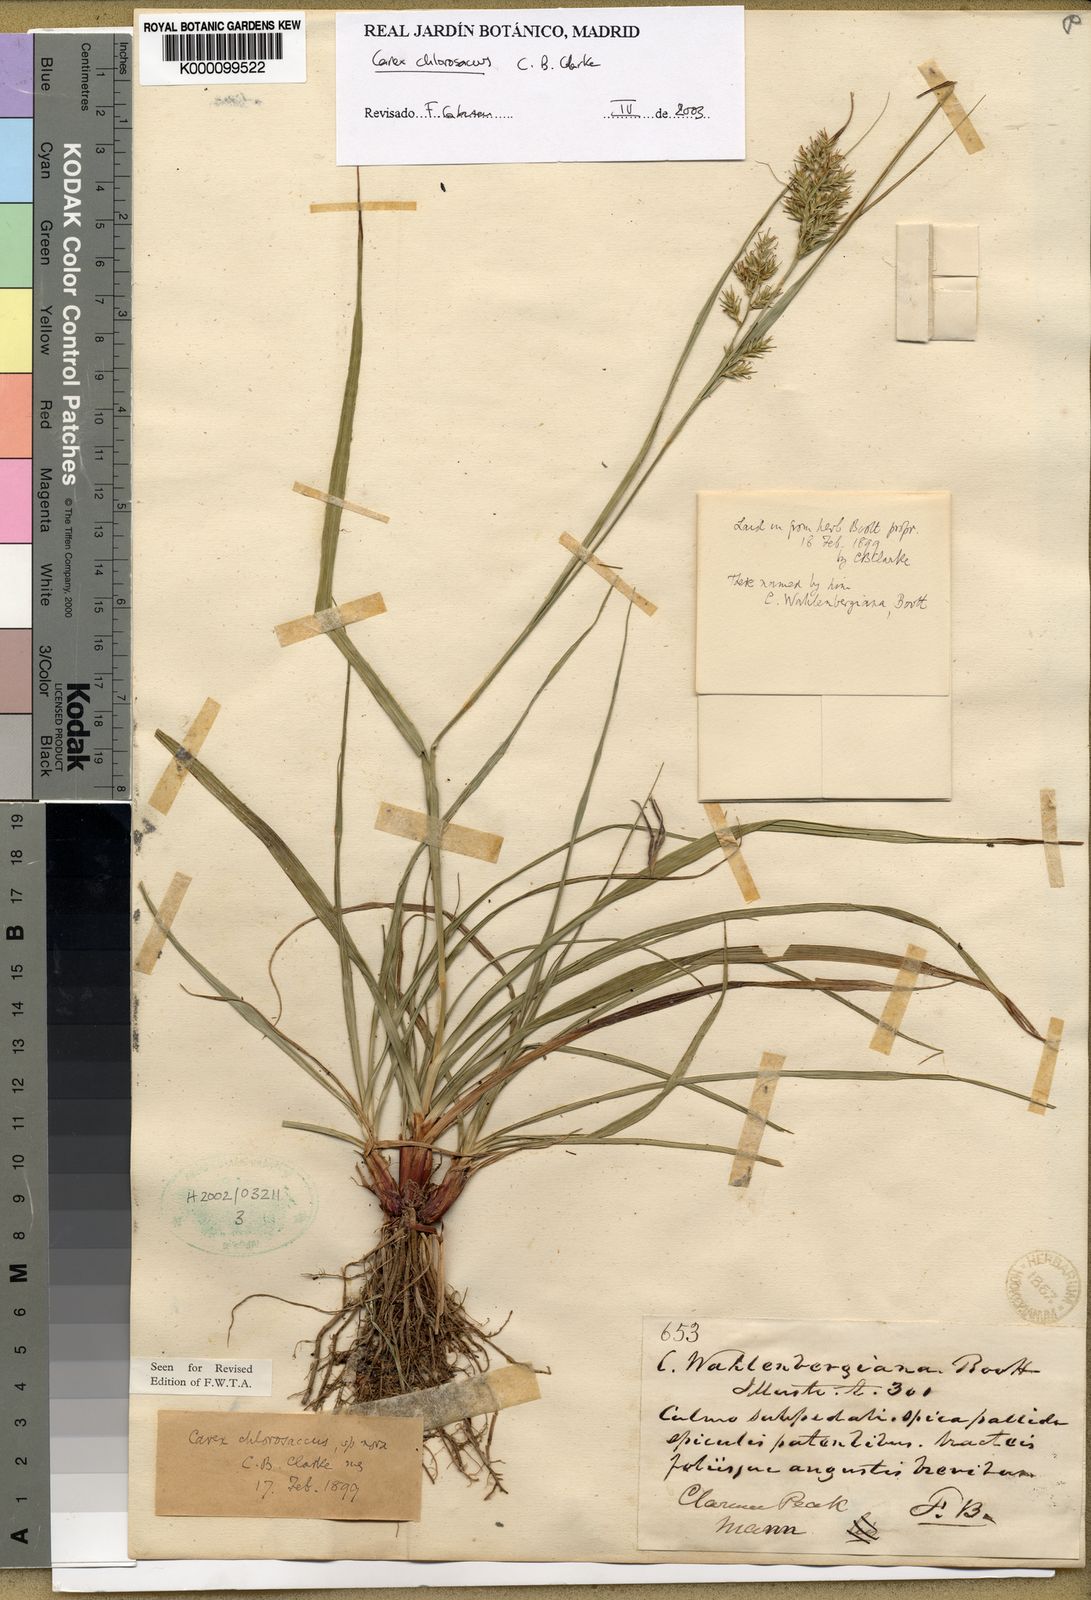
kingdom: Plantae
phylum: Tracheophyta
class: Liliopsida
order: Poales
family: Cyperaceae
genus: Carex
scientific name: Carex echinochloe
